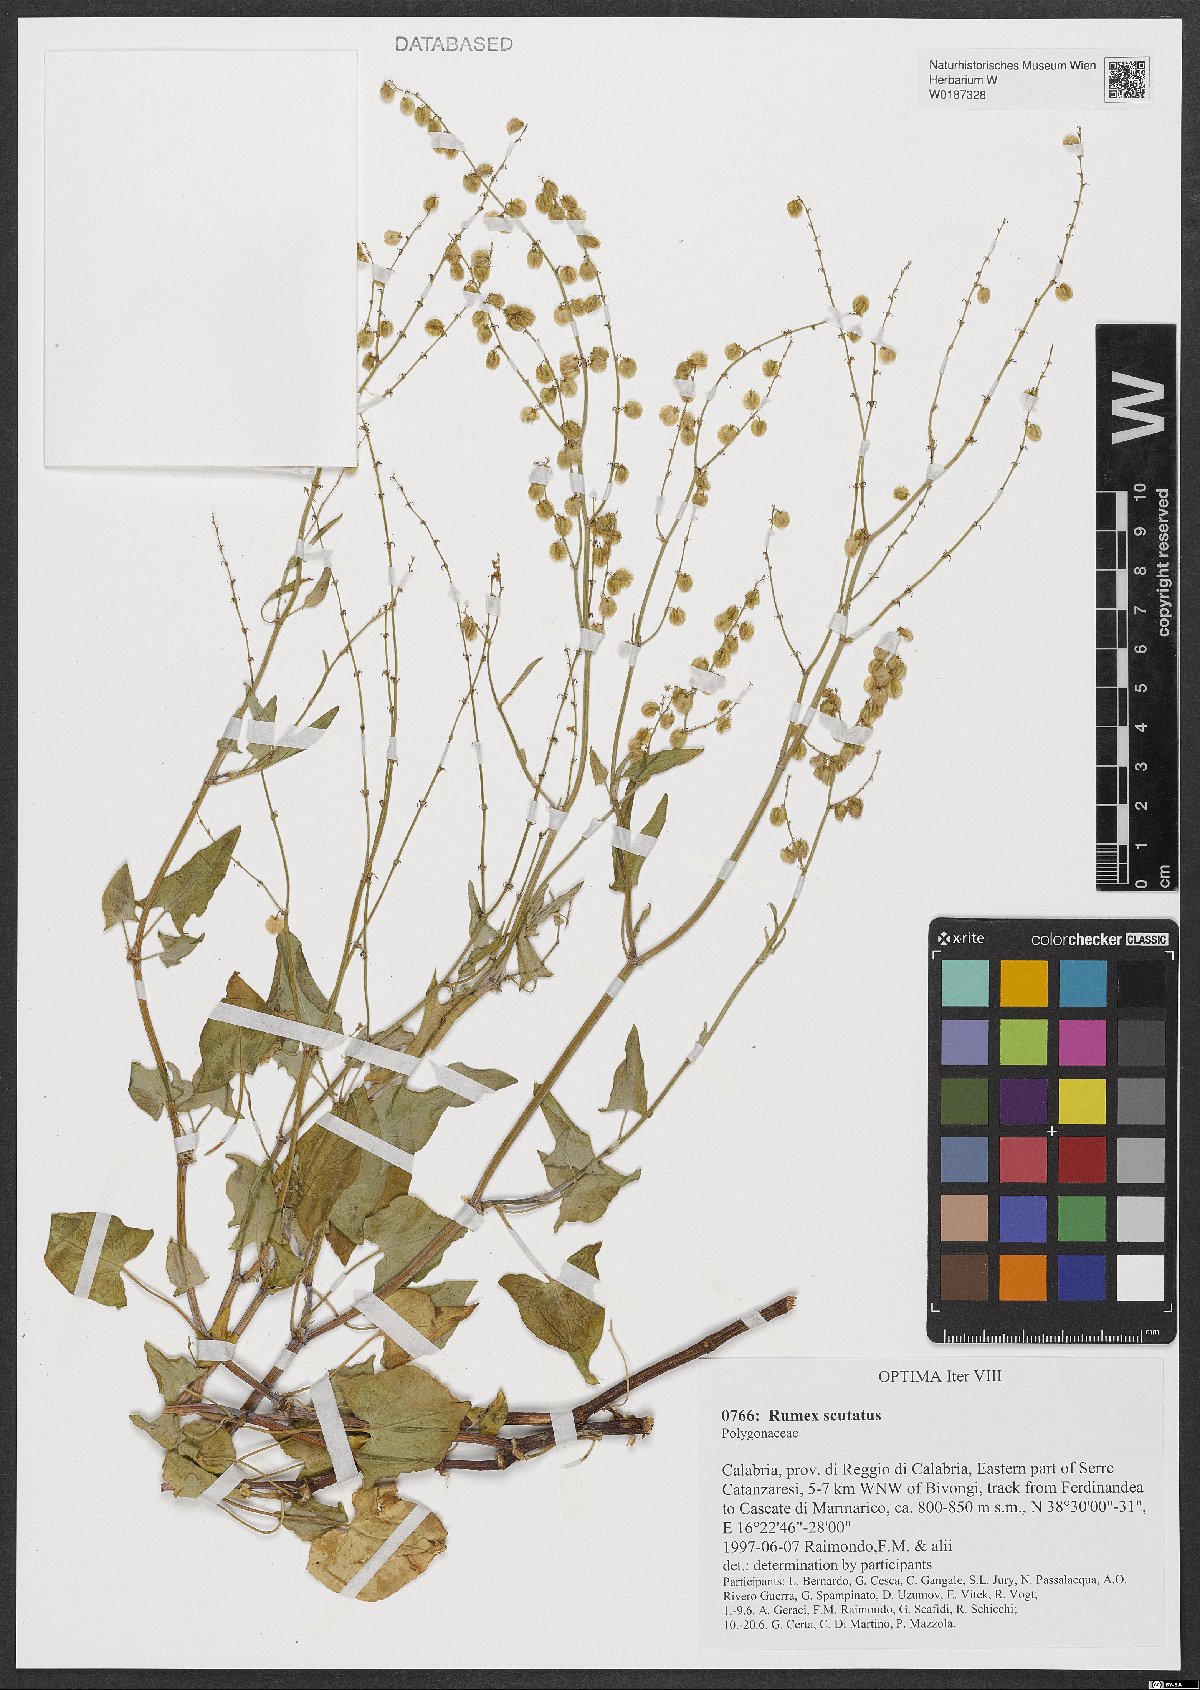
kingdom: Plantae
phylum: Tracheophyta
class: Magnoliopsida
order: Caryophyllales
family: Polygonaceae
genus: Rumex
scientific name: Rumex scutatus
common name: French sorrel
